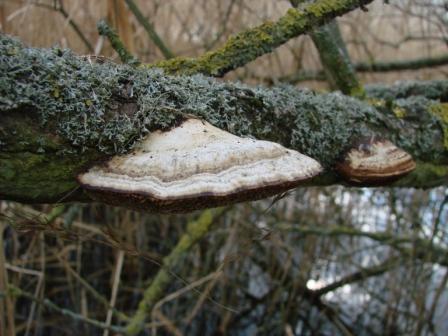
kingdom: Fungi
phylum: Basidiomycota
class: Agaricomycetes
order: Polyporales
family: Polyporaceae
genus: Daedaleopsis
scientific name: Daedaleopsis confragosa
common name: rødmende læderporesvamp
